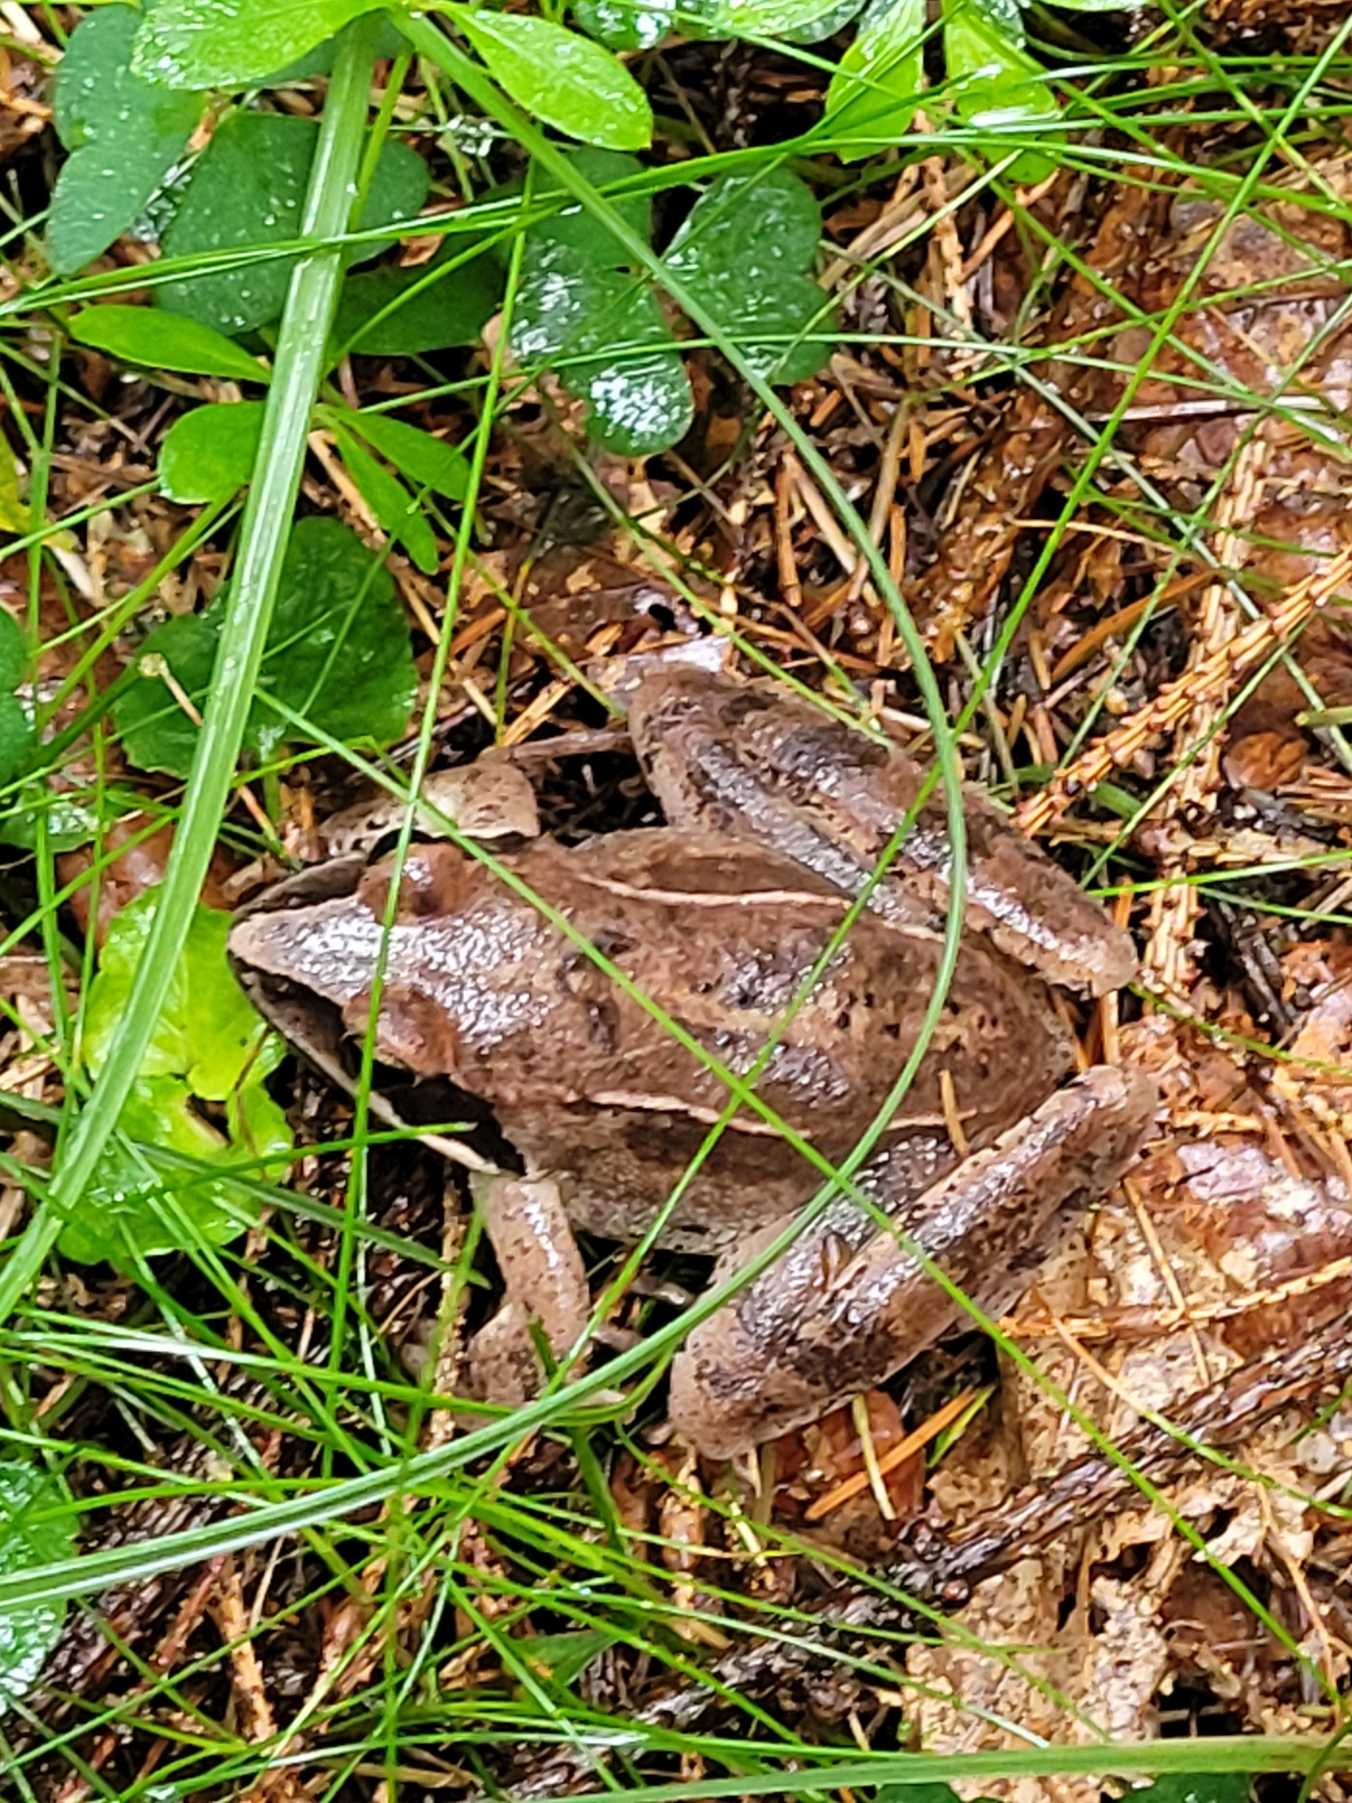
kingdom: Animalia
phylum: Chordata
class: Amphibia
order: Anura
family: Ranidae
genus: Rana
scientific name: Rana dalmatina
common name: Springfrø
